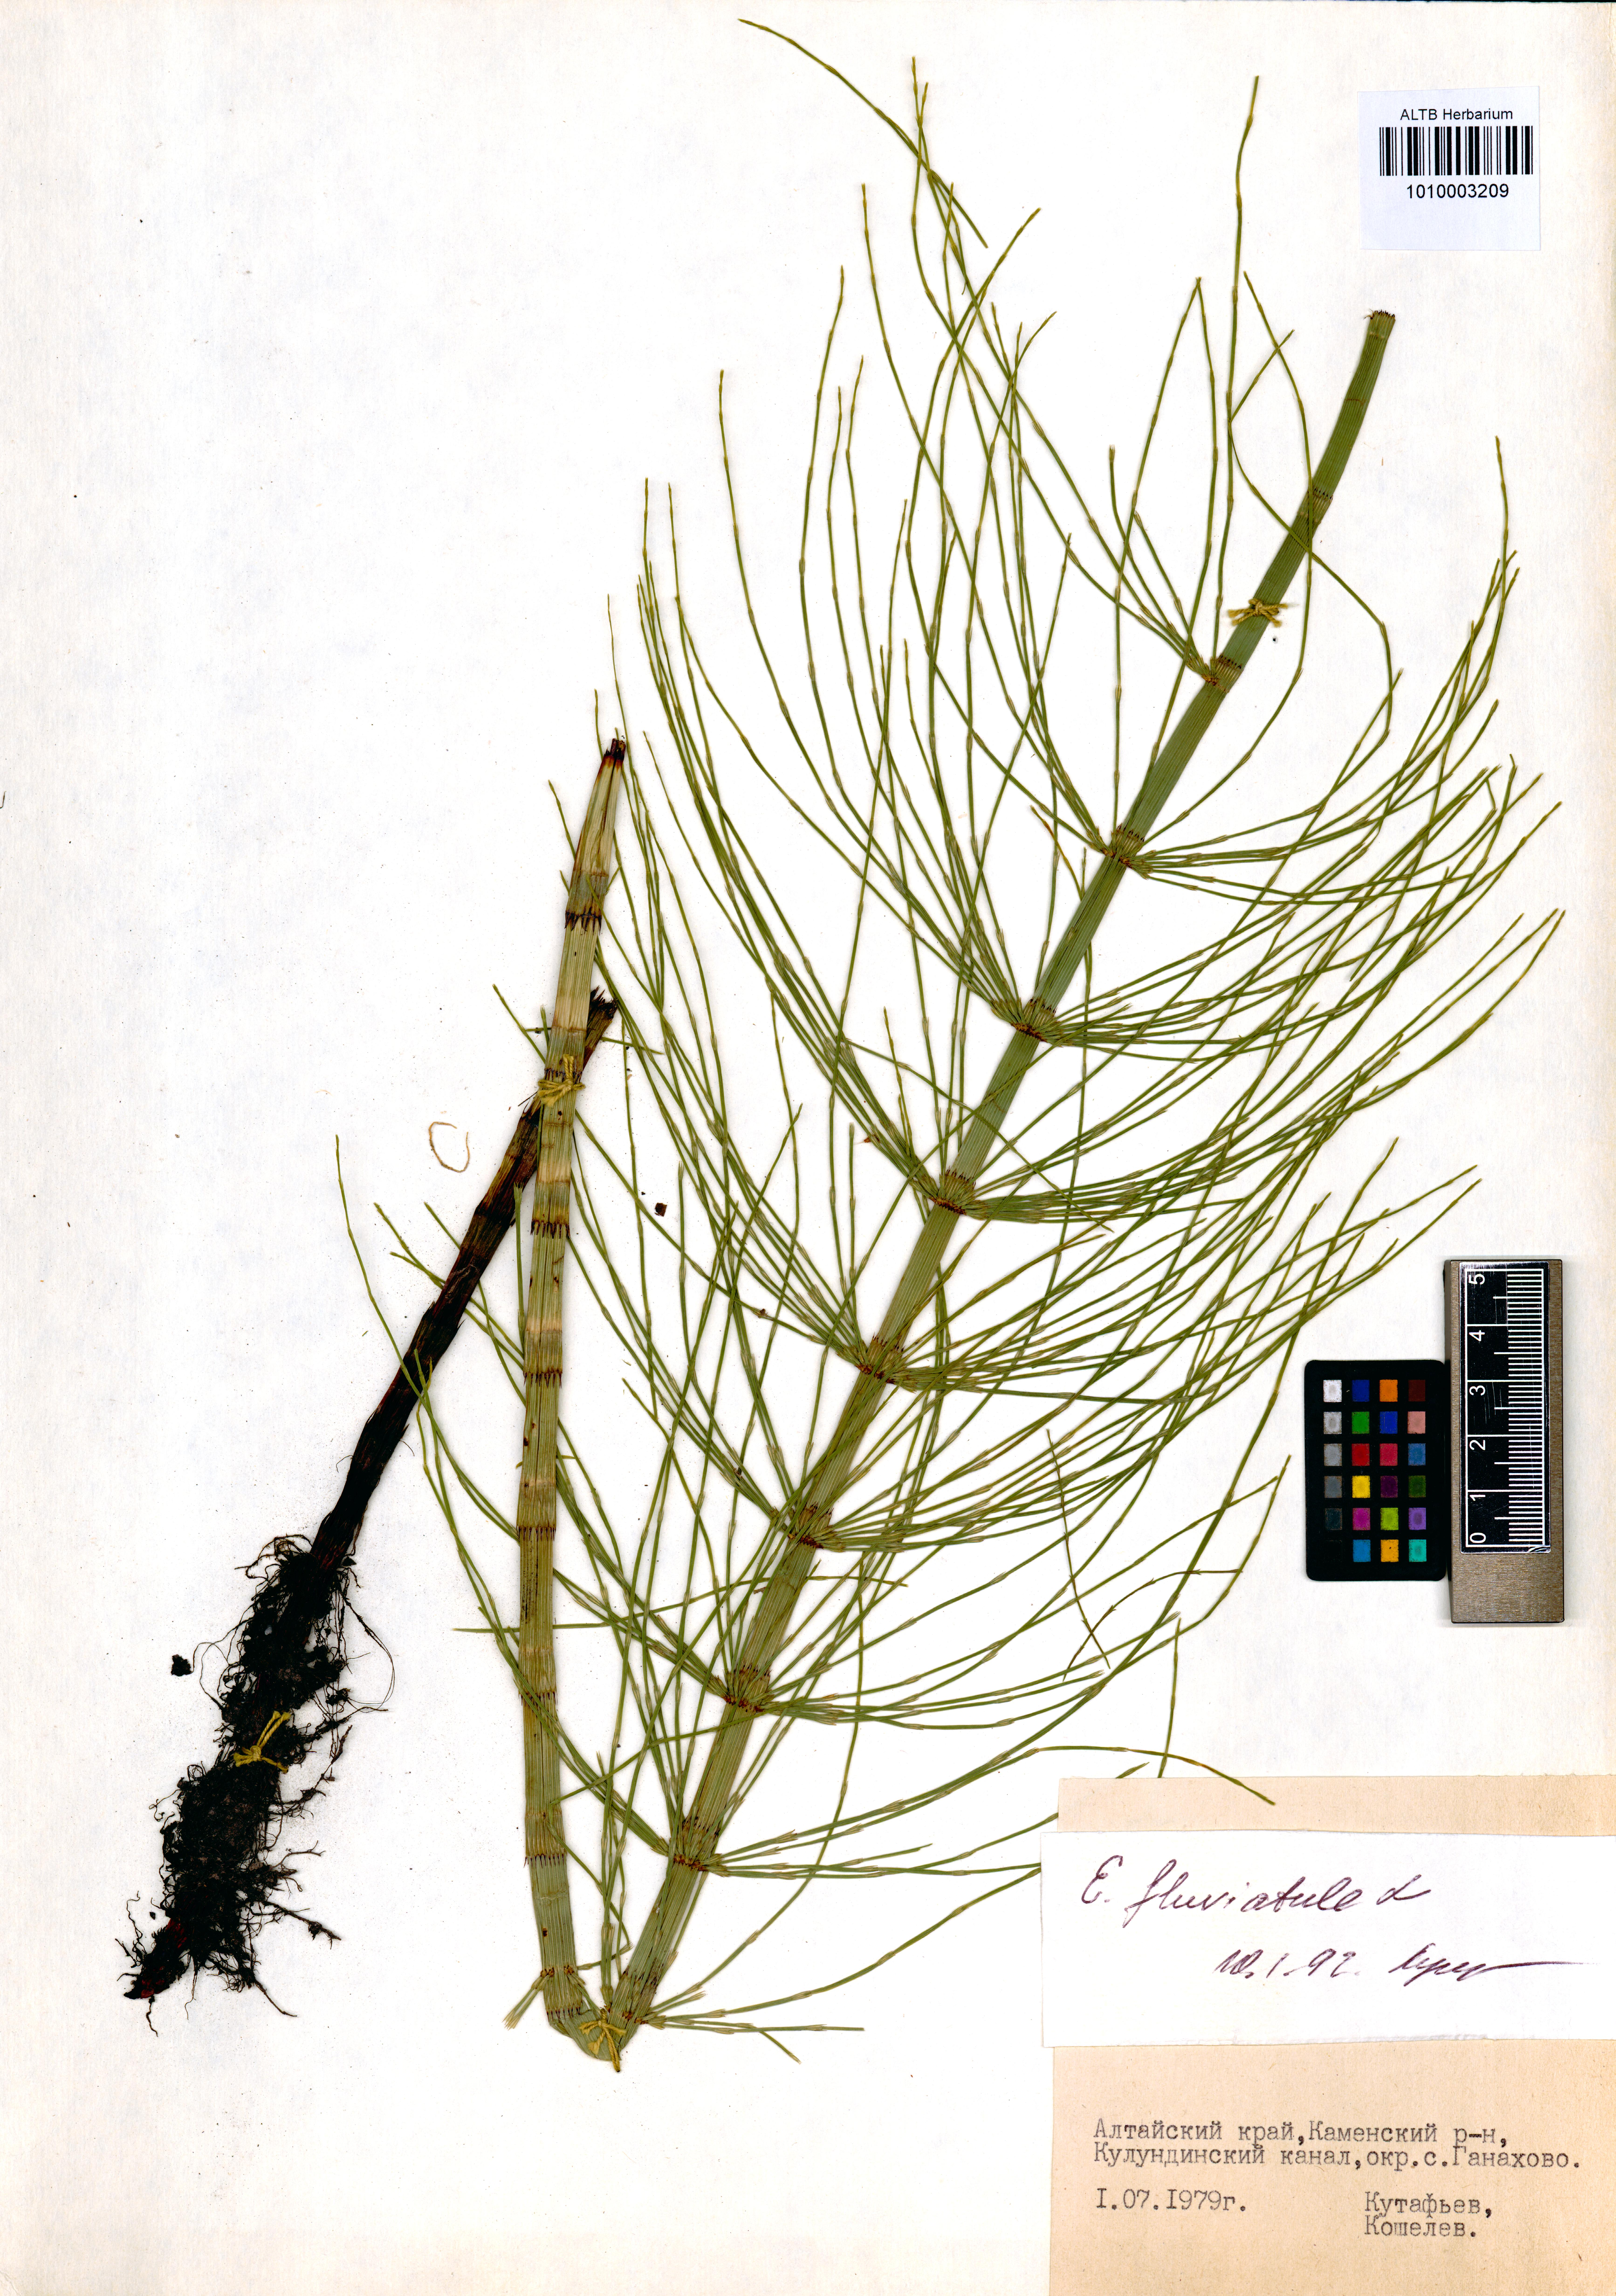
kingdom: Plantae
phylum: Tracheophyta
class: Polypodiopsida
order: Equisetales
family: Equisetaceae
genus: Equisetum
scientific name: Equisetum fluviatile
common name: Water horsetail
